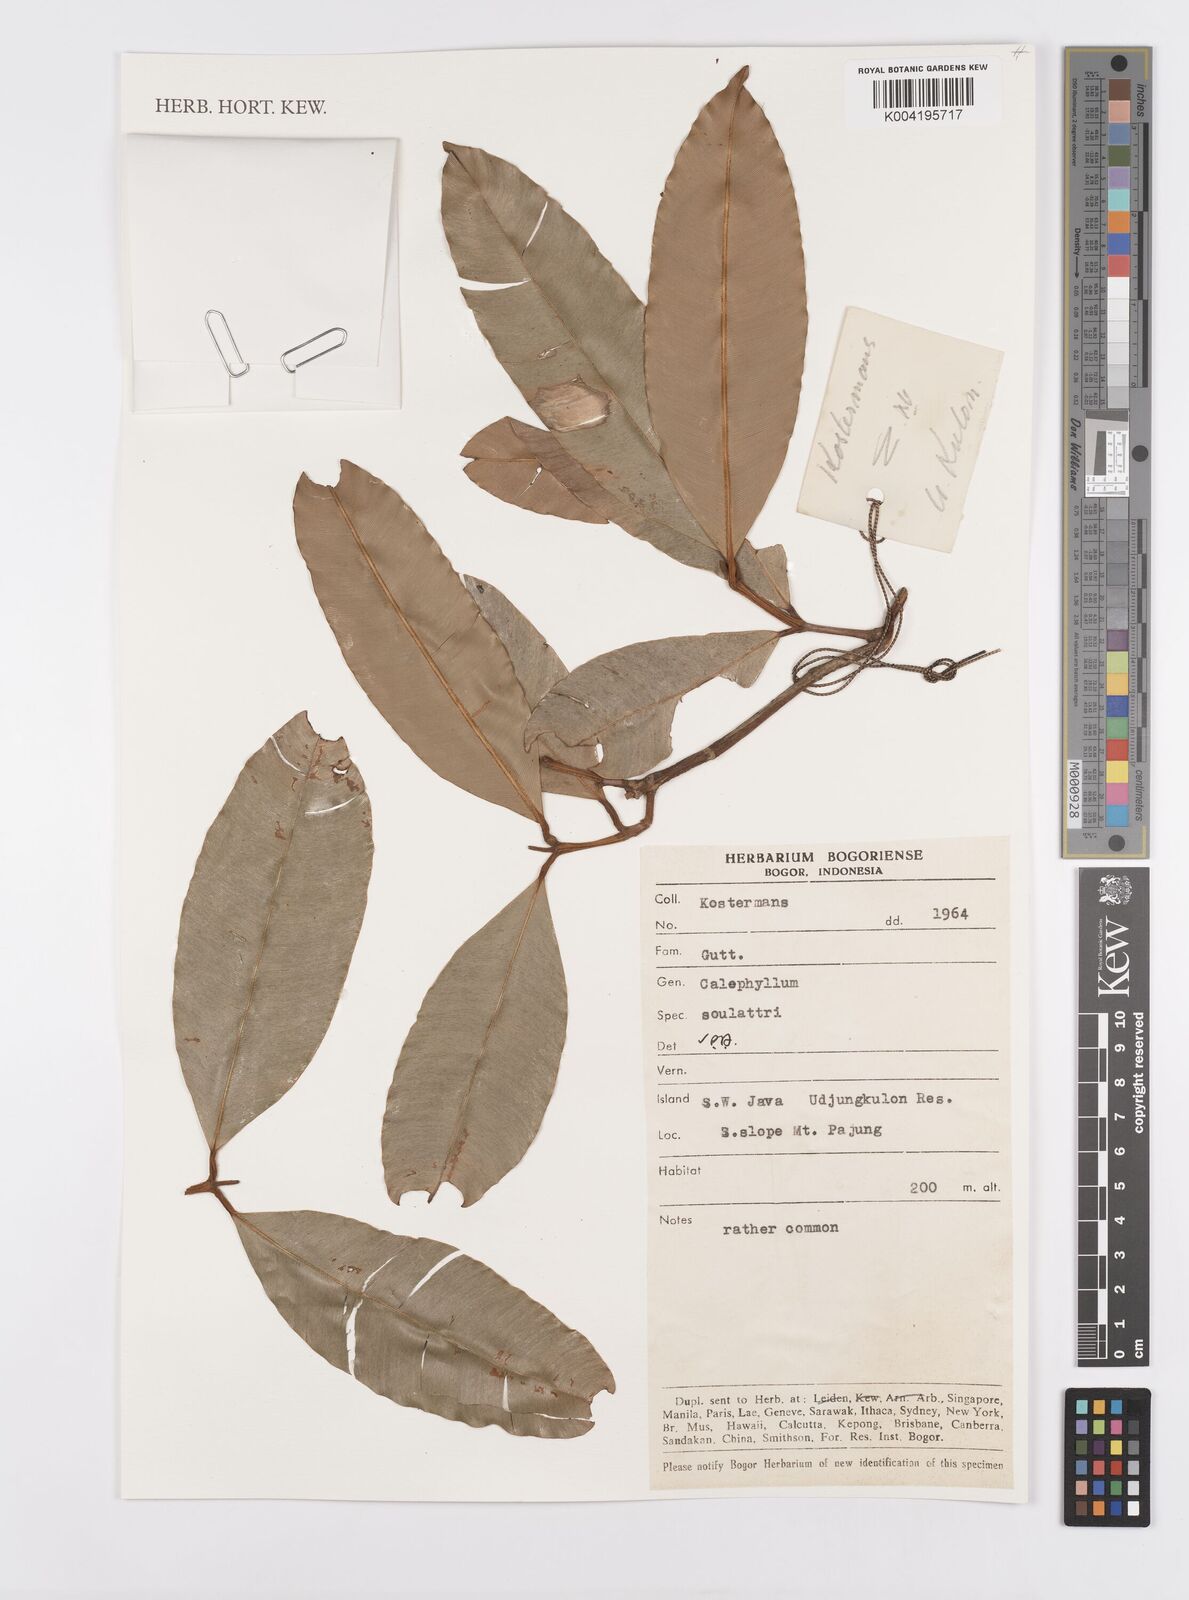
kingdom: Plantae
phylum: Tracheophyta
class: Magnoliopsida
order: Malpighiales
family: Calophyllaceae
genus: Calophyllum
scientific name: Calophyllum soulattri
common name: Bitangoor boonot
